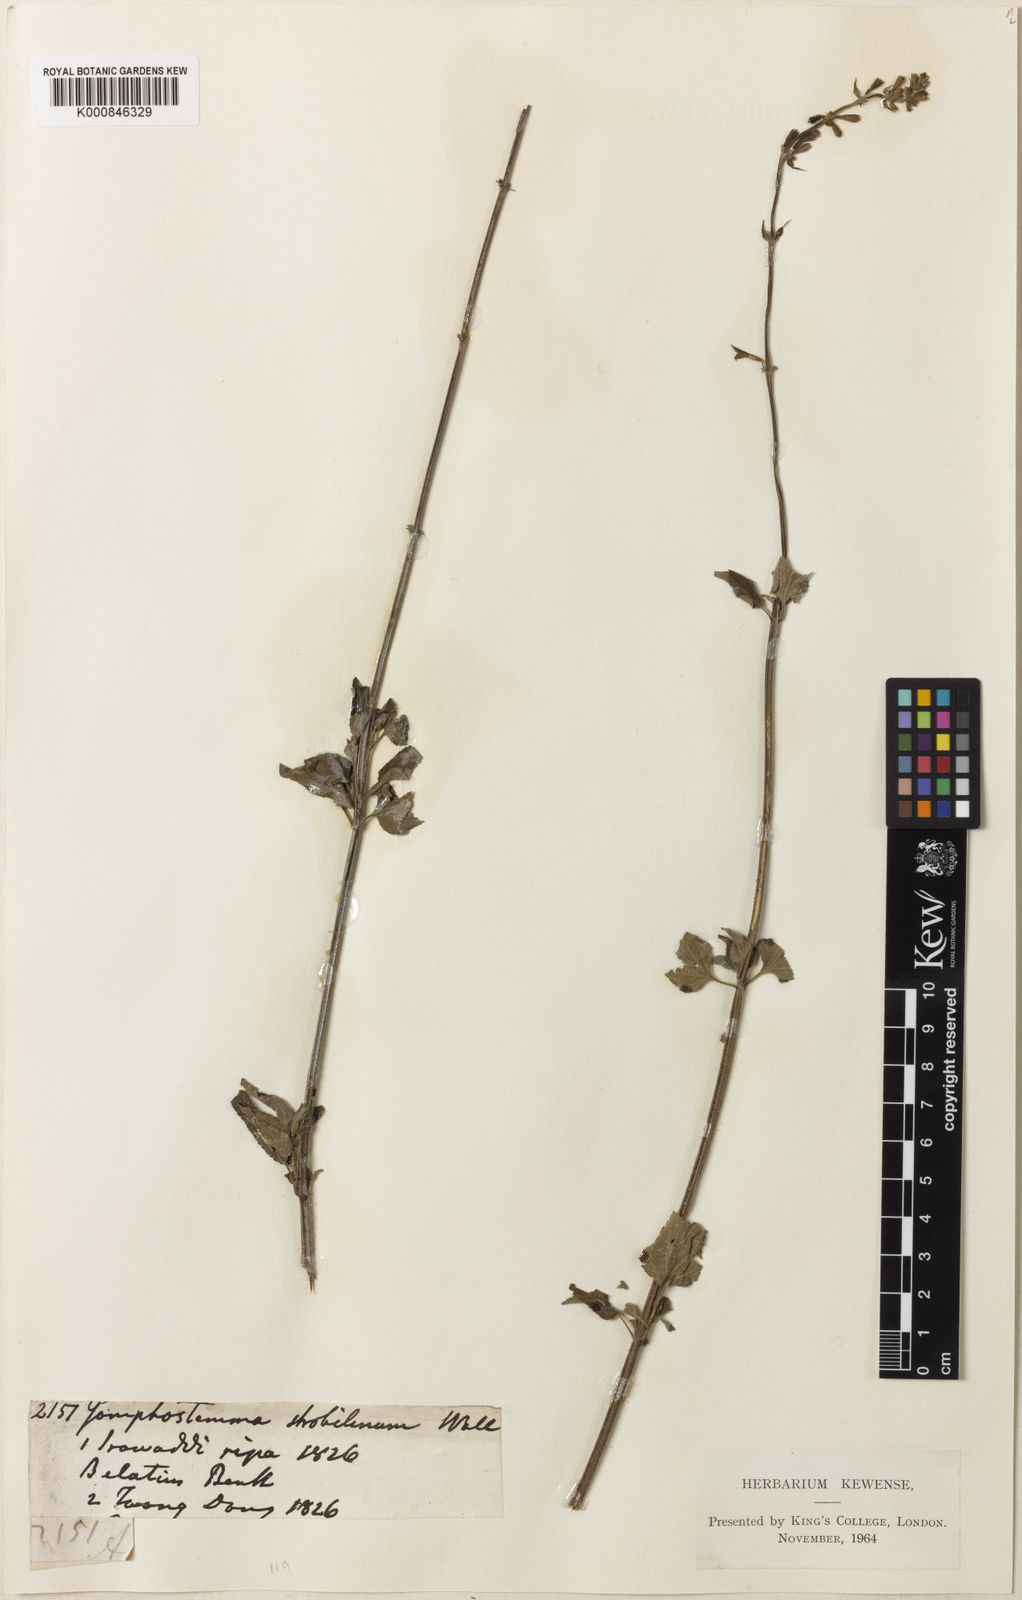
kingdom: Plantae
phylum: Tracheophyta
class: Magnoliopsida
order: Lamiales
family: Lamiaceae
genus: Salvia
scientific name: Salvia
